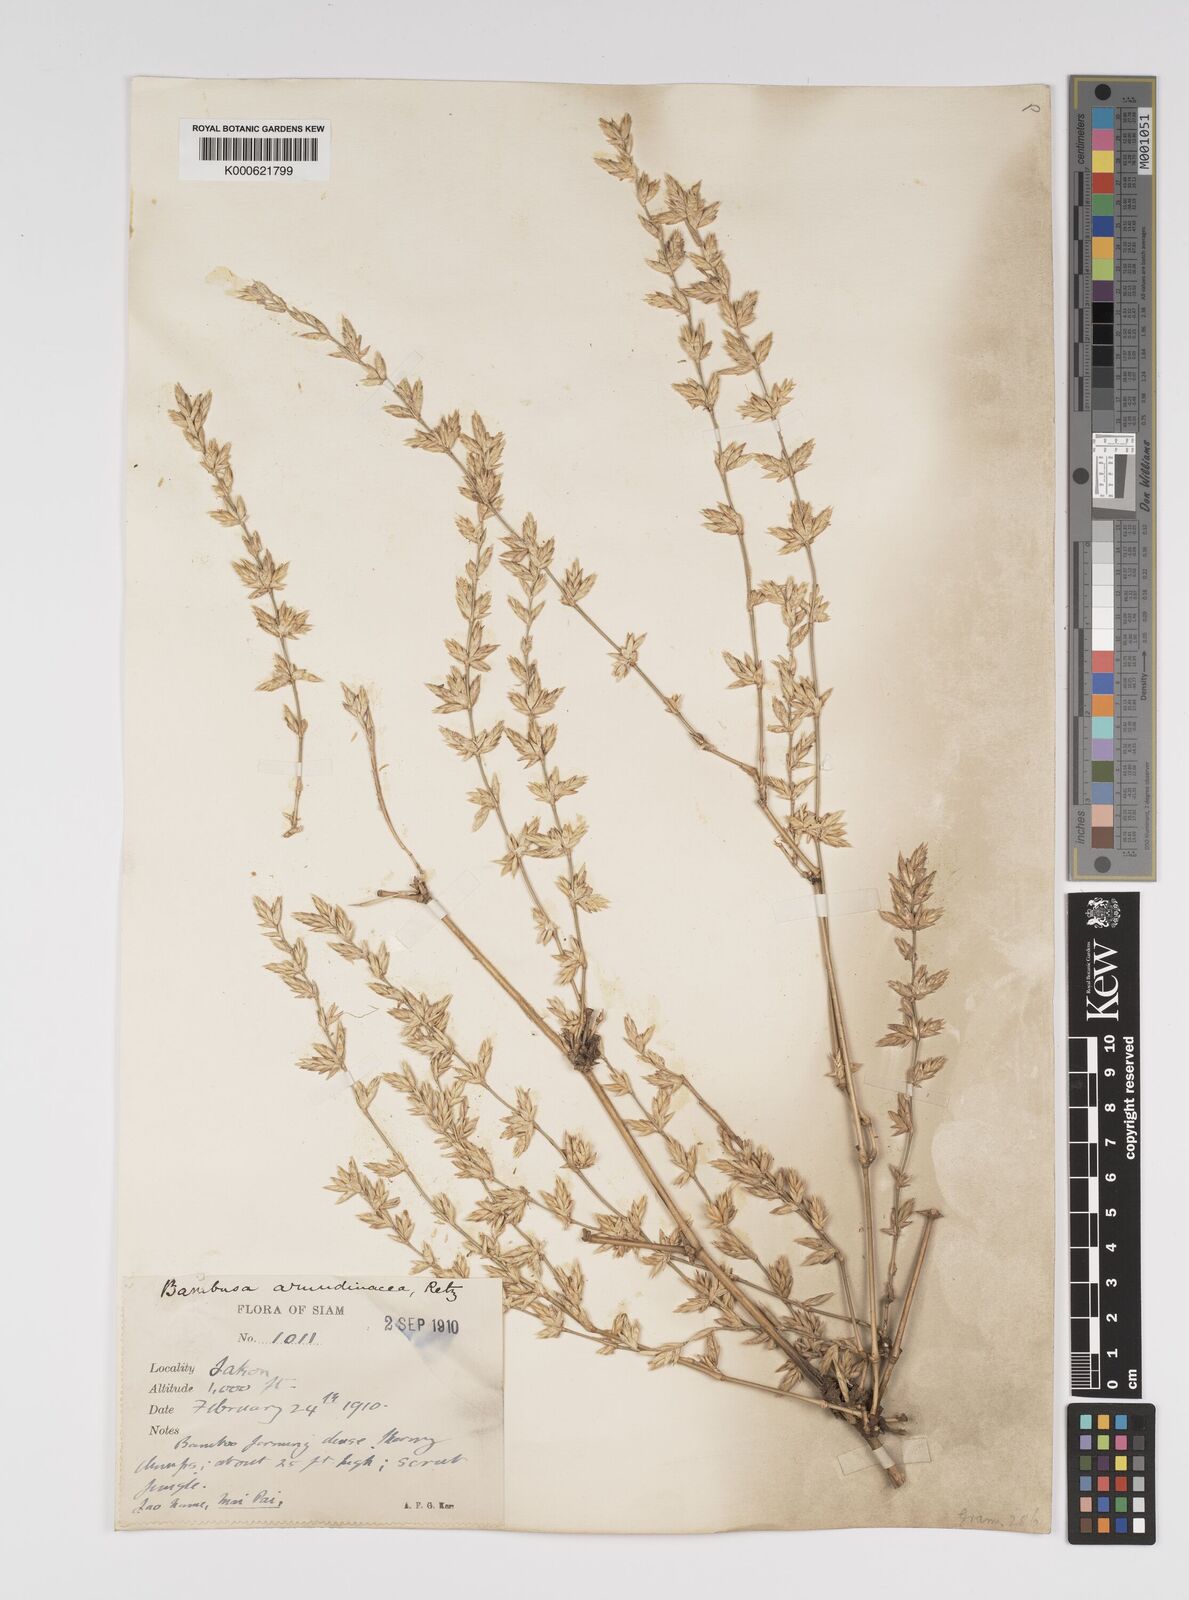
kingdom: Plantae
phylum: Tracheophyta
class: Liliopsida
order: Poales
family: Poaceae
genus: Bambusa
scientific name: Bambusa bambos
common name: Indian thorny bamboo
